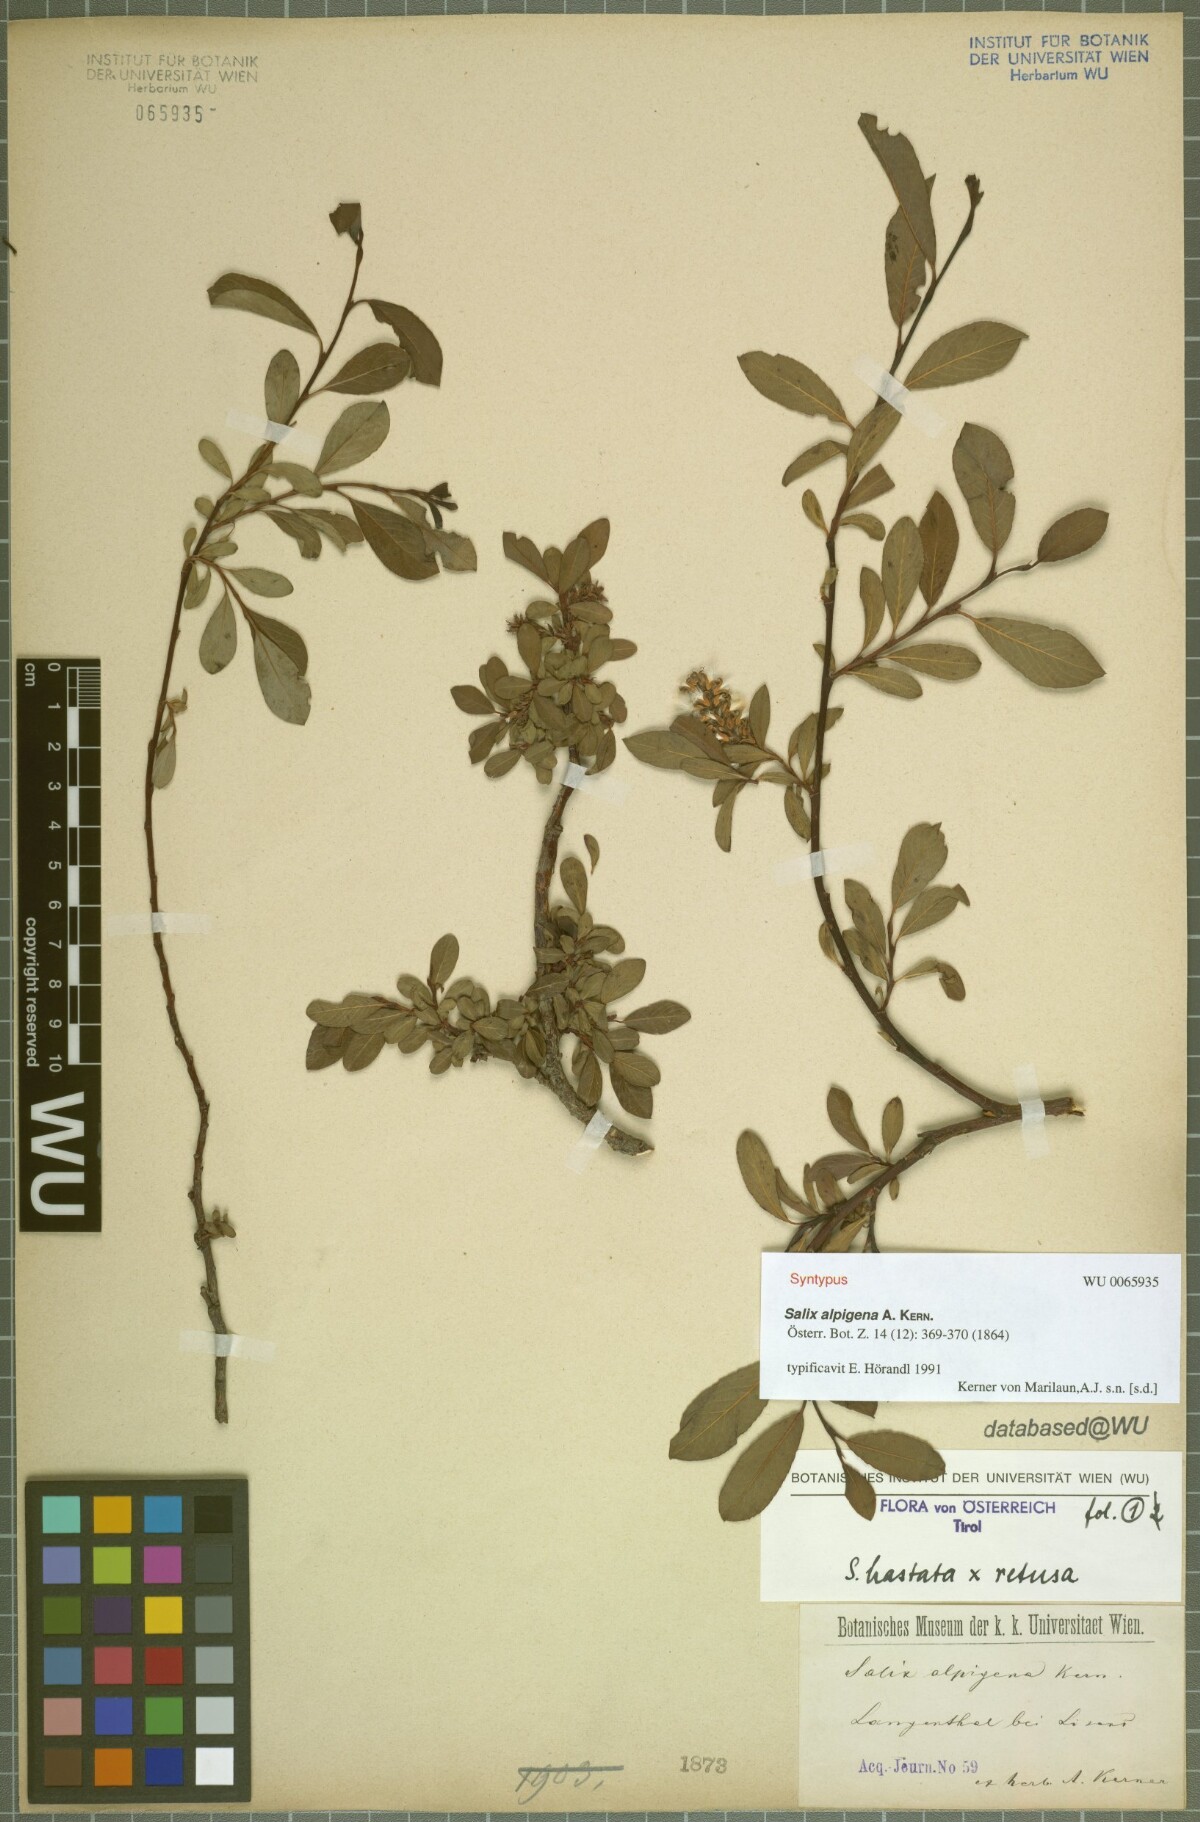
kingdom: Plantae
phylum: Tracheophyta
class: Magnoliopsida
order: Malpighiales
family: Salicaceae
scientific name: Salicaceae
